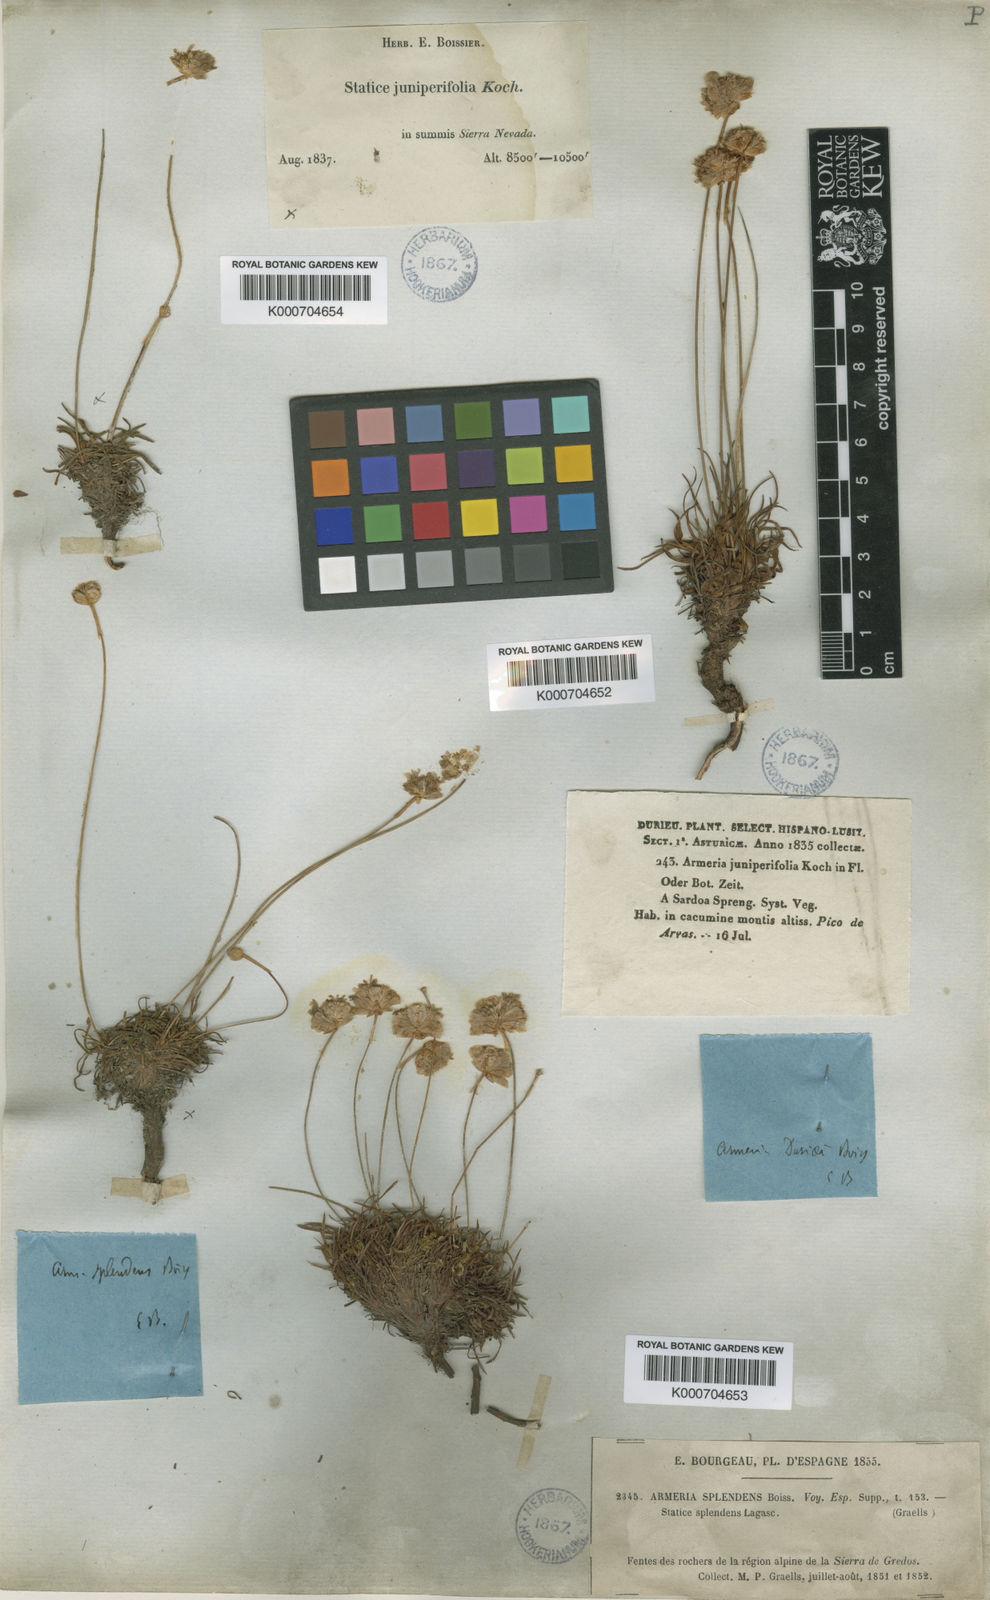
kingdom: Plantae
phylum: Tracheophyta
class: Magnoliopsida
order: Caryophyllales
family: Plumbaginaceae
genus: Armeria
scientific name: Armeria
